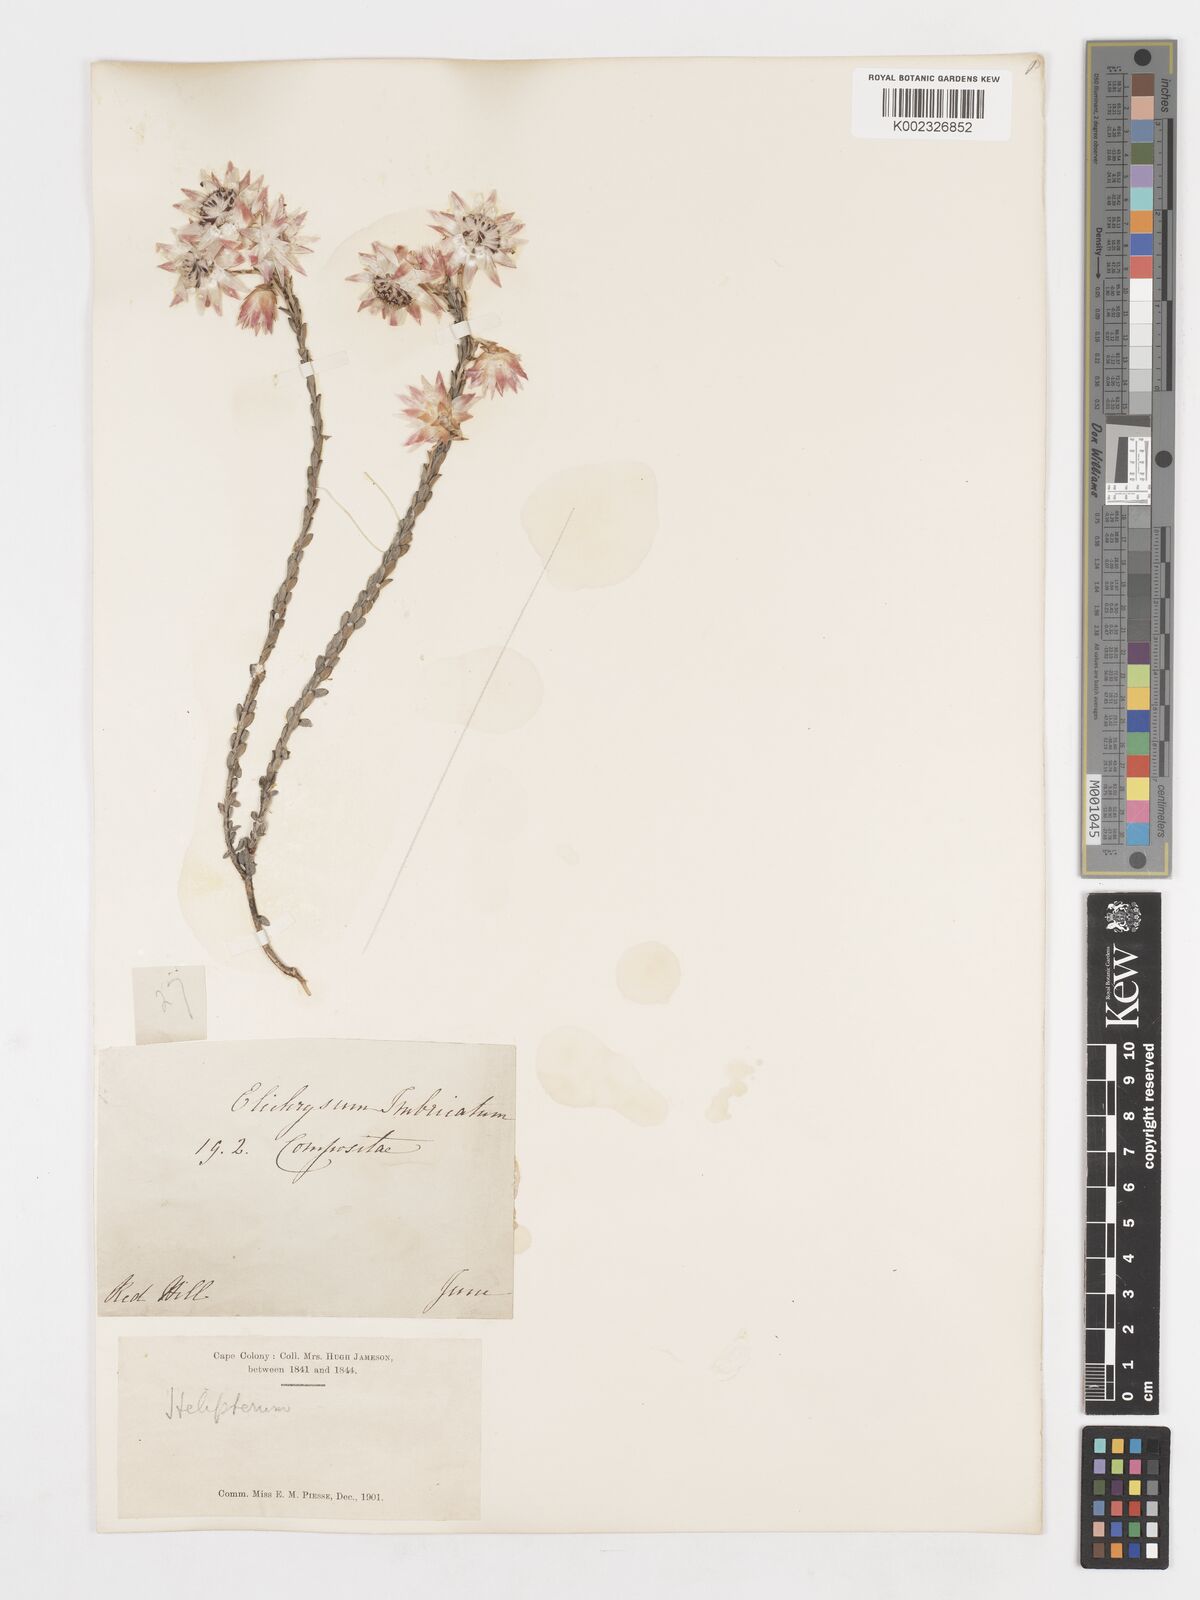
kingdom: Plantae
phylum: Tracheophyta
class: Magnoliopsida
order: Asterales
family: Asteraceae
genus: Syncarpha
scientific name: Syncarpha
